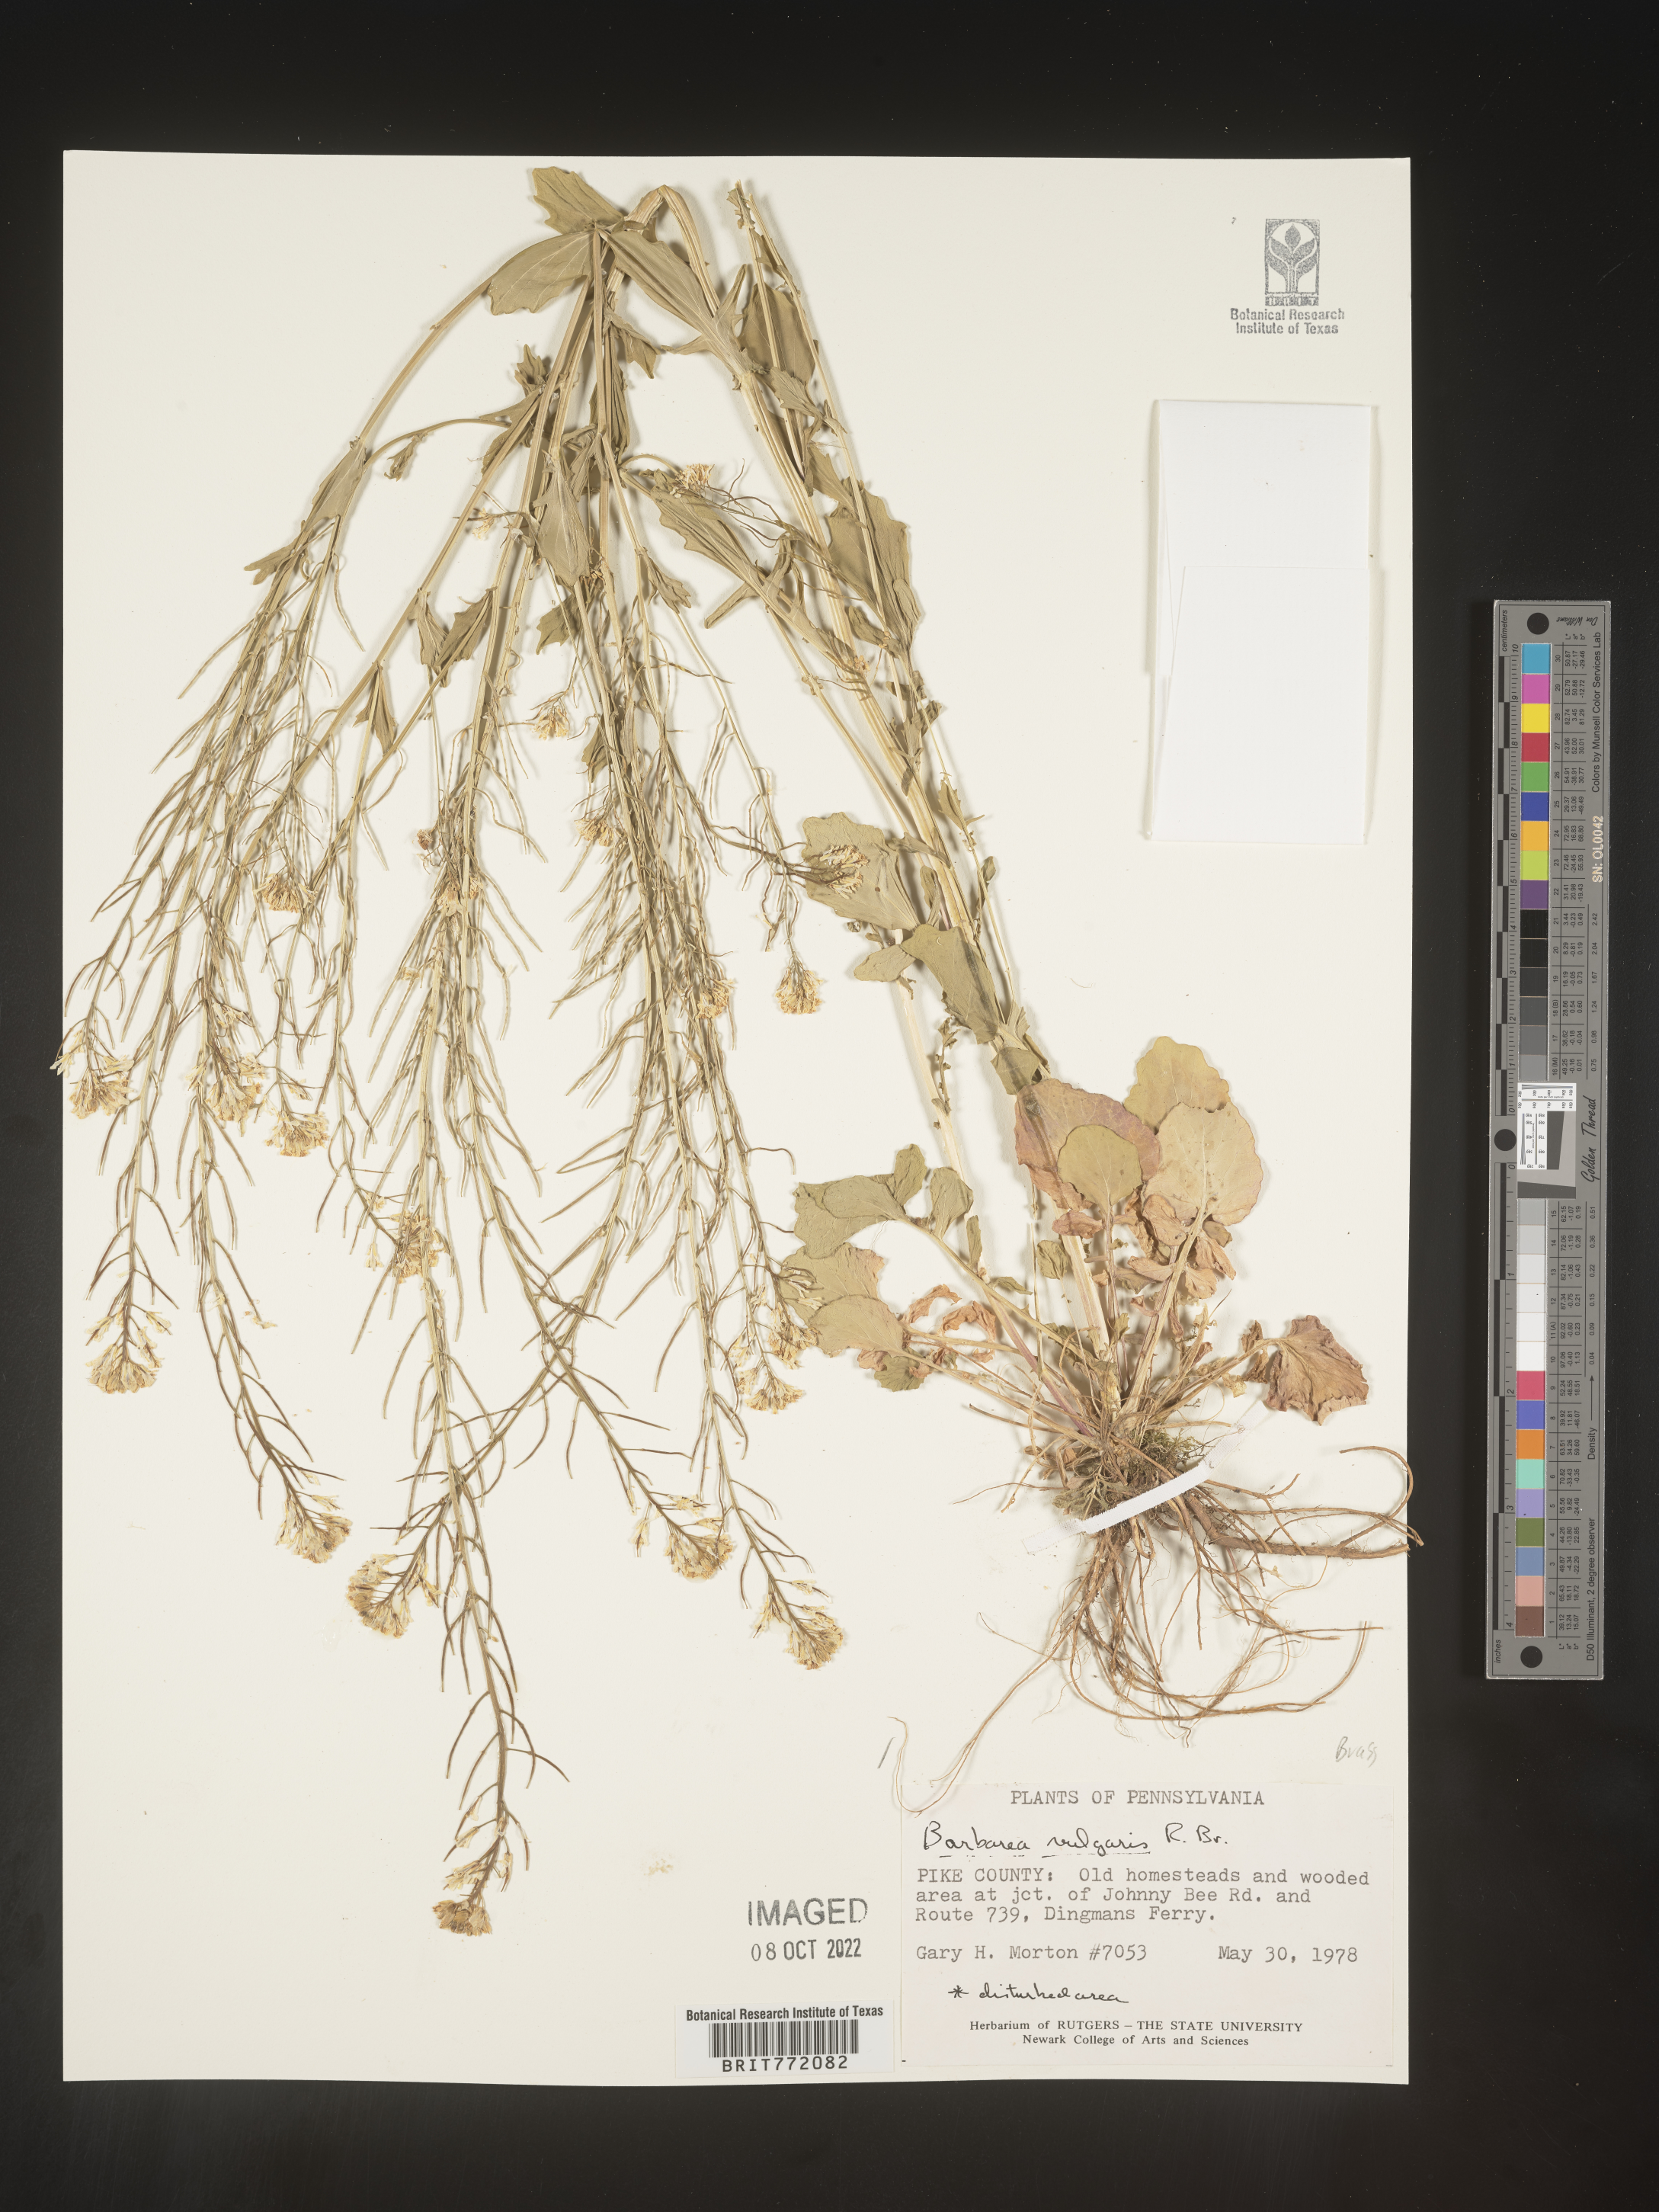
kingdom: Plantae
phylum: Tracheophyta
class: Magnoliopsida
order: Brassicales
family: Brassicaceae
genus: Barbarea
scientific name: Barbarea vulgaris
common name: Cressy-greens
